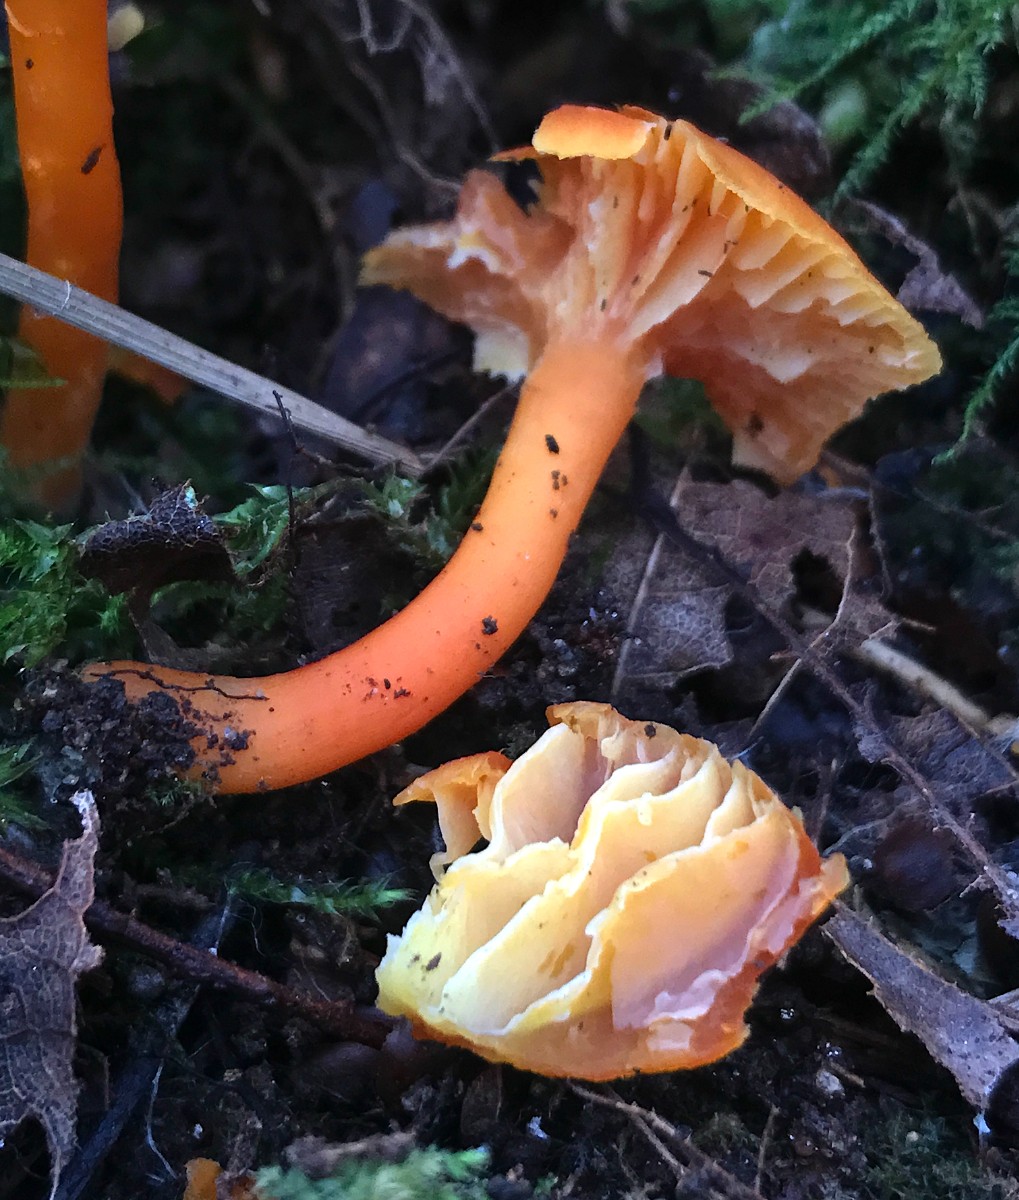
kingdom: Fungi
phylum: Basidiomycota
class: Agaricomycetes
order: Agaricales
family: Hygrophoraceae
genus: Hygrocybe
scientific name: Hygrocybe miniata
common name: mønje-vokshat
